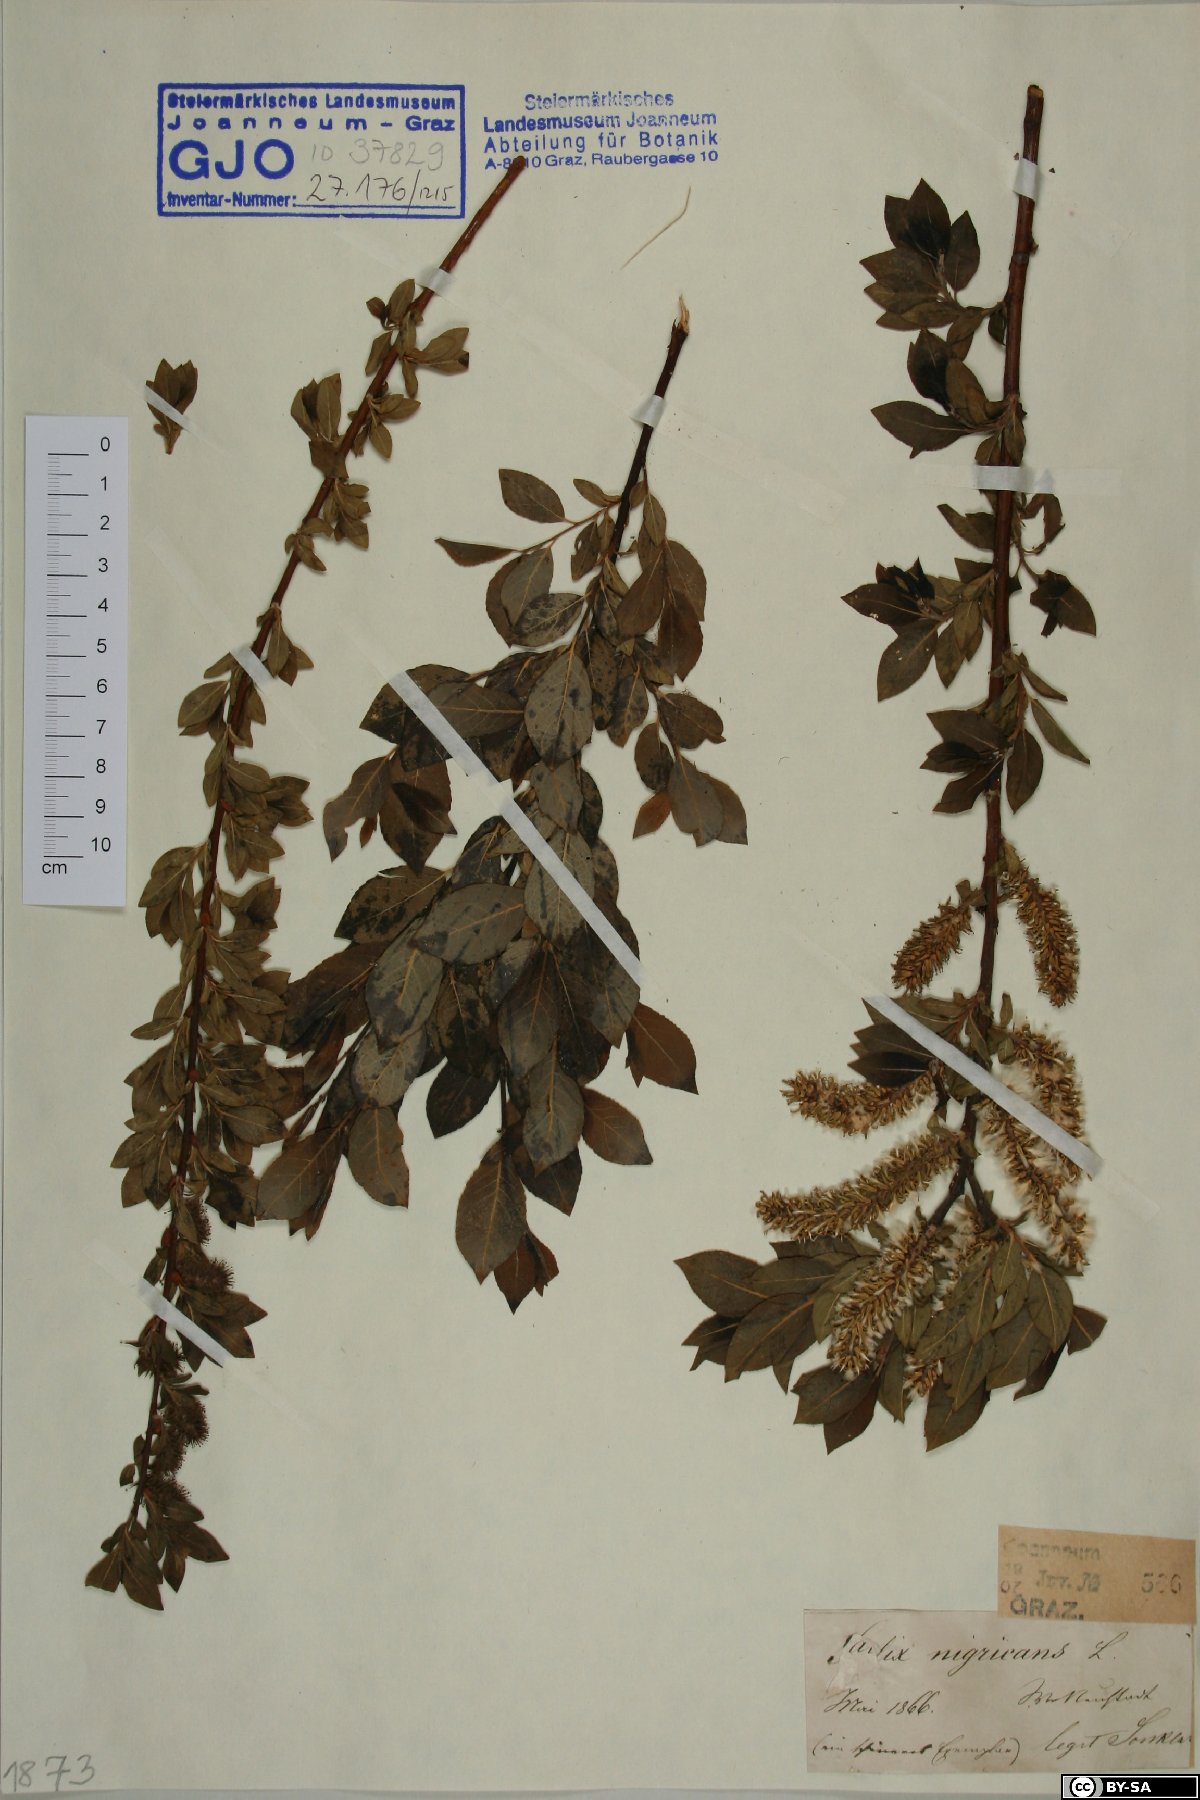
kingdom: Plantae
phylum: Tracheophyta
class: Magnoliopsida
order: Malpighiales
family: Salicaceae
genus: Salix
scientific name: Salix myrsinifolia
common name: Dark-leaved willow
